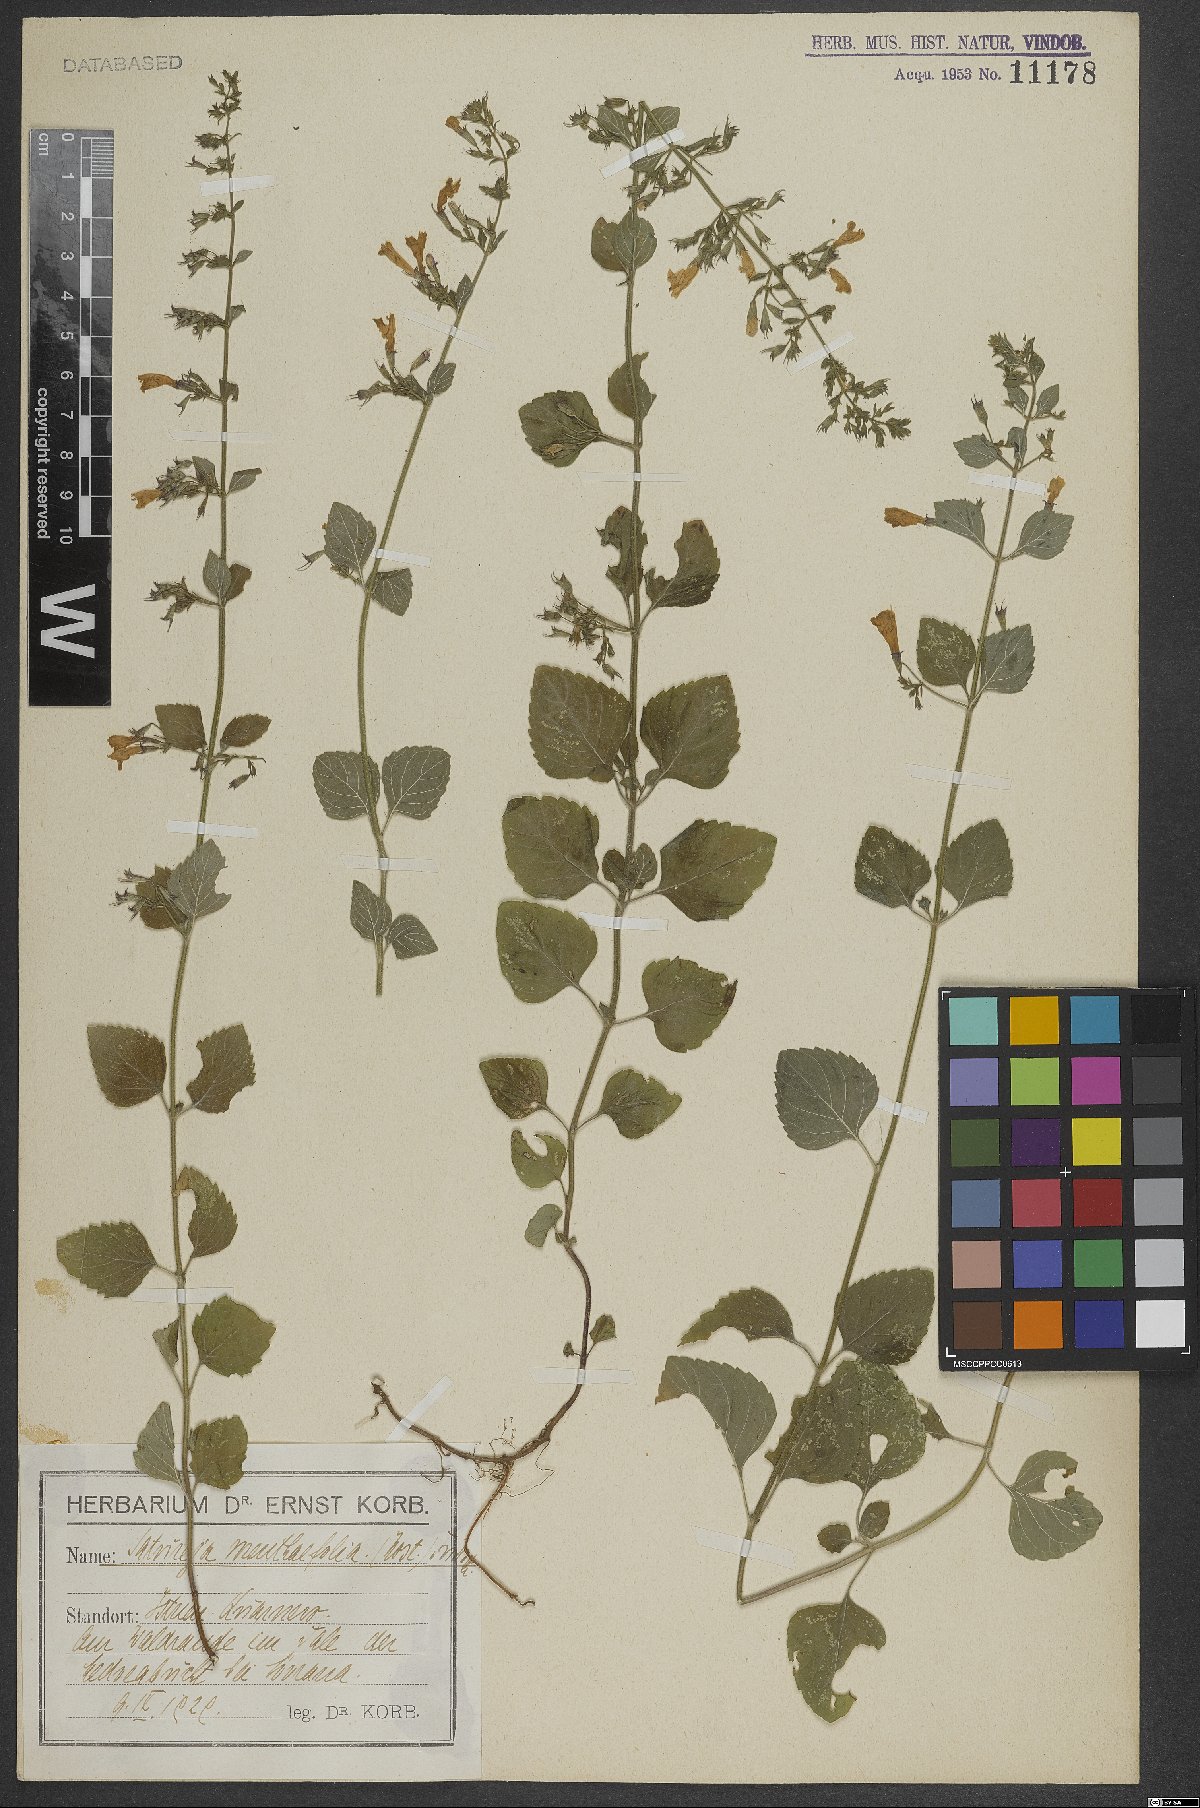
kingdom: Plantae
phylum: Tracheophyta
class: Magnoliopsida
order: Lamiales
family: Lamiaceae
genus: Clinopodium
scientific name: Clinopodium menthifolium
